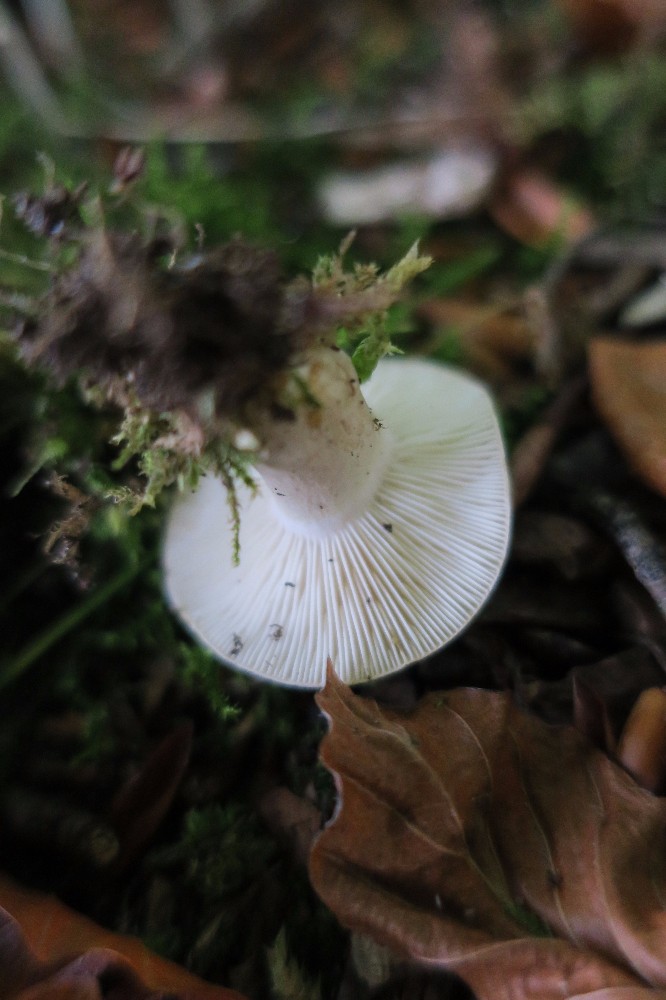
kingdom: Fungi
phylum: Basidiomycota
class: Agaricomycetes
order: Russulales
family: Russulaceae
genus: Lactarius
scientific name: Lactarius blennius
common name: dråbeplettet mælkehat
